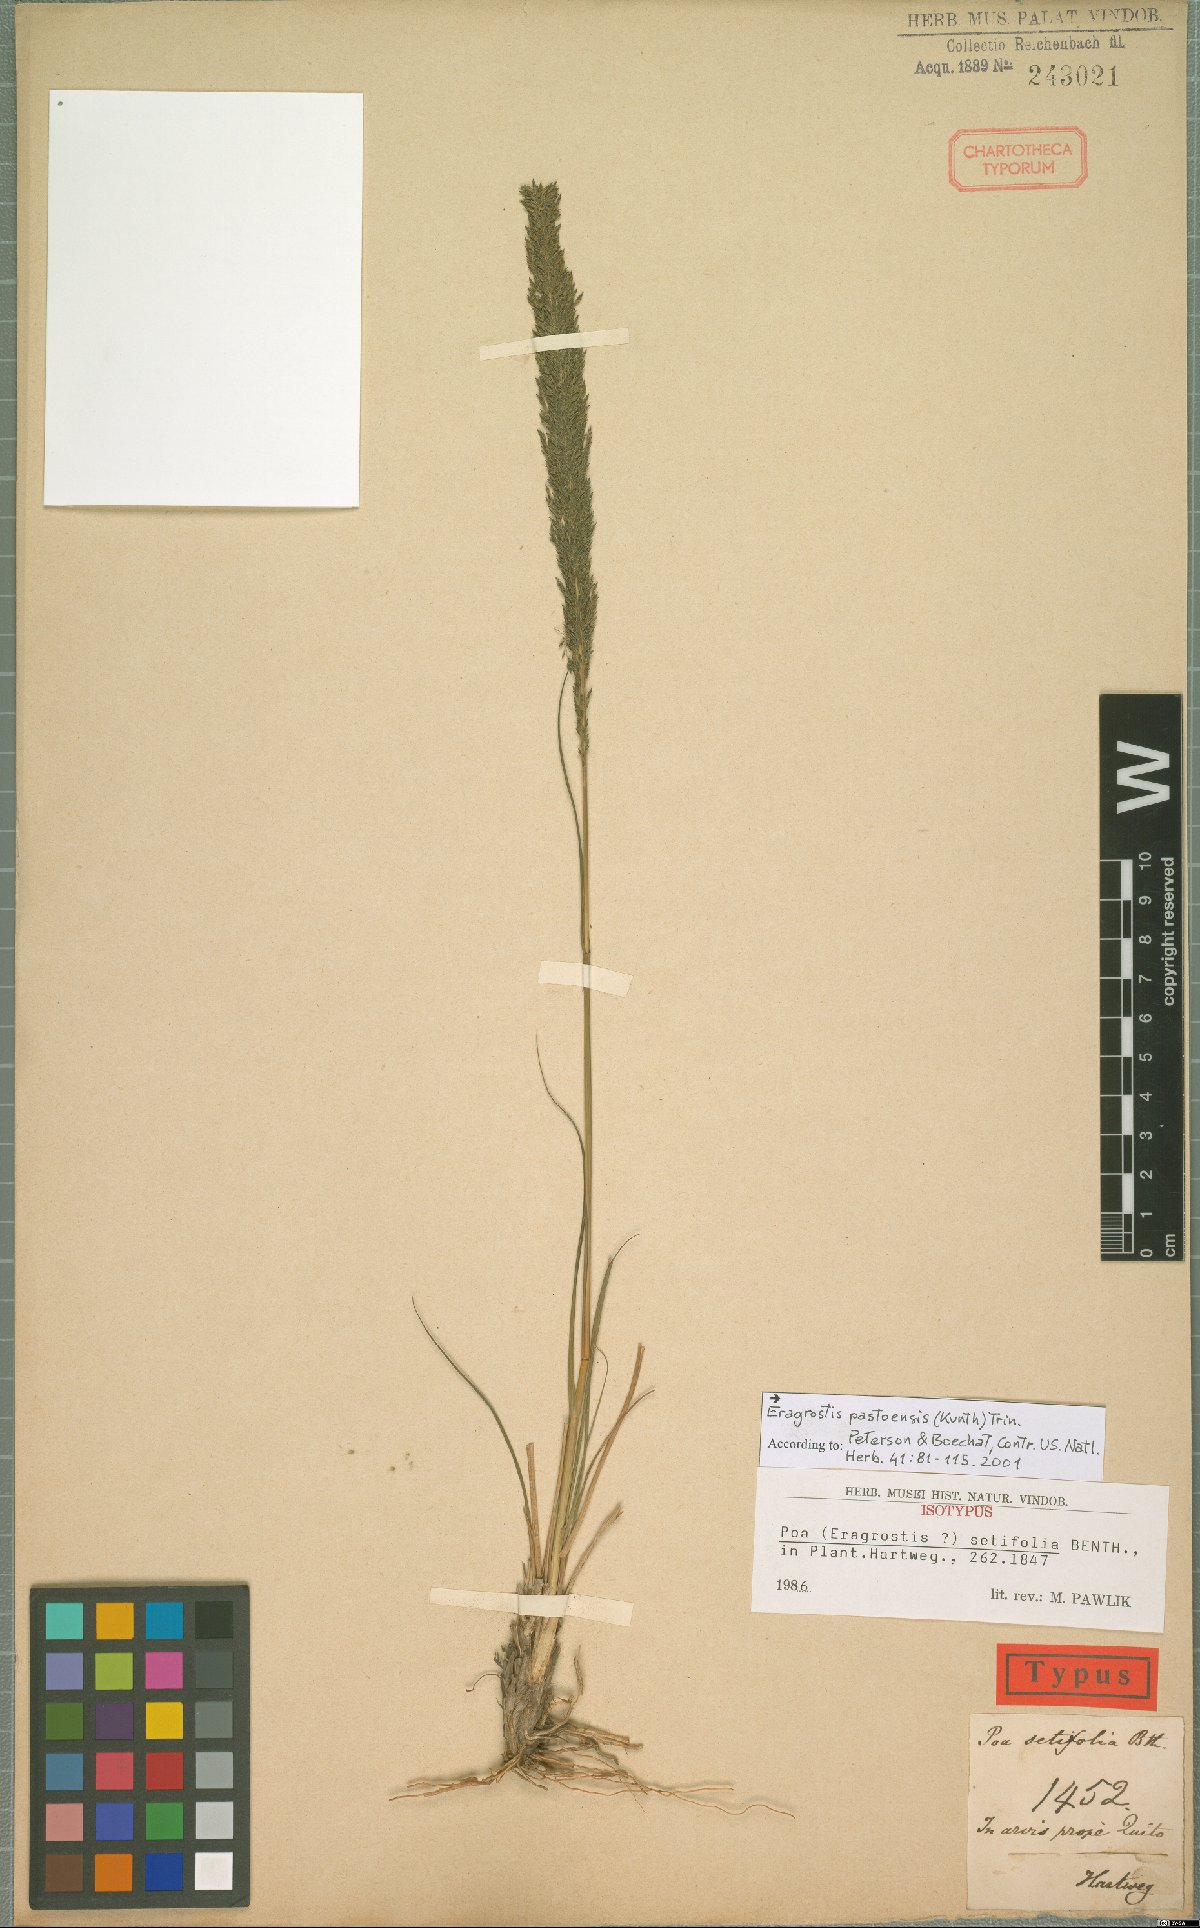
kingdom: Plantae
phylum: Tracheophyta
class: Liliopsida
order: Poales
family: Poaceae
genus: Eragrostis
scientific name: Eragrostis pastoensis
